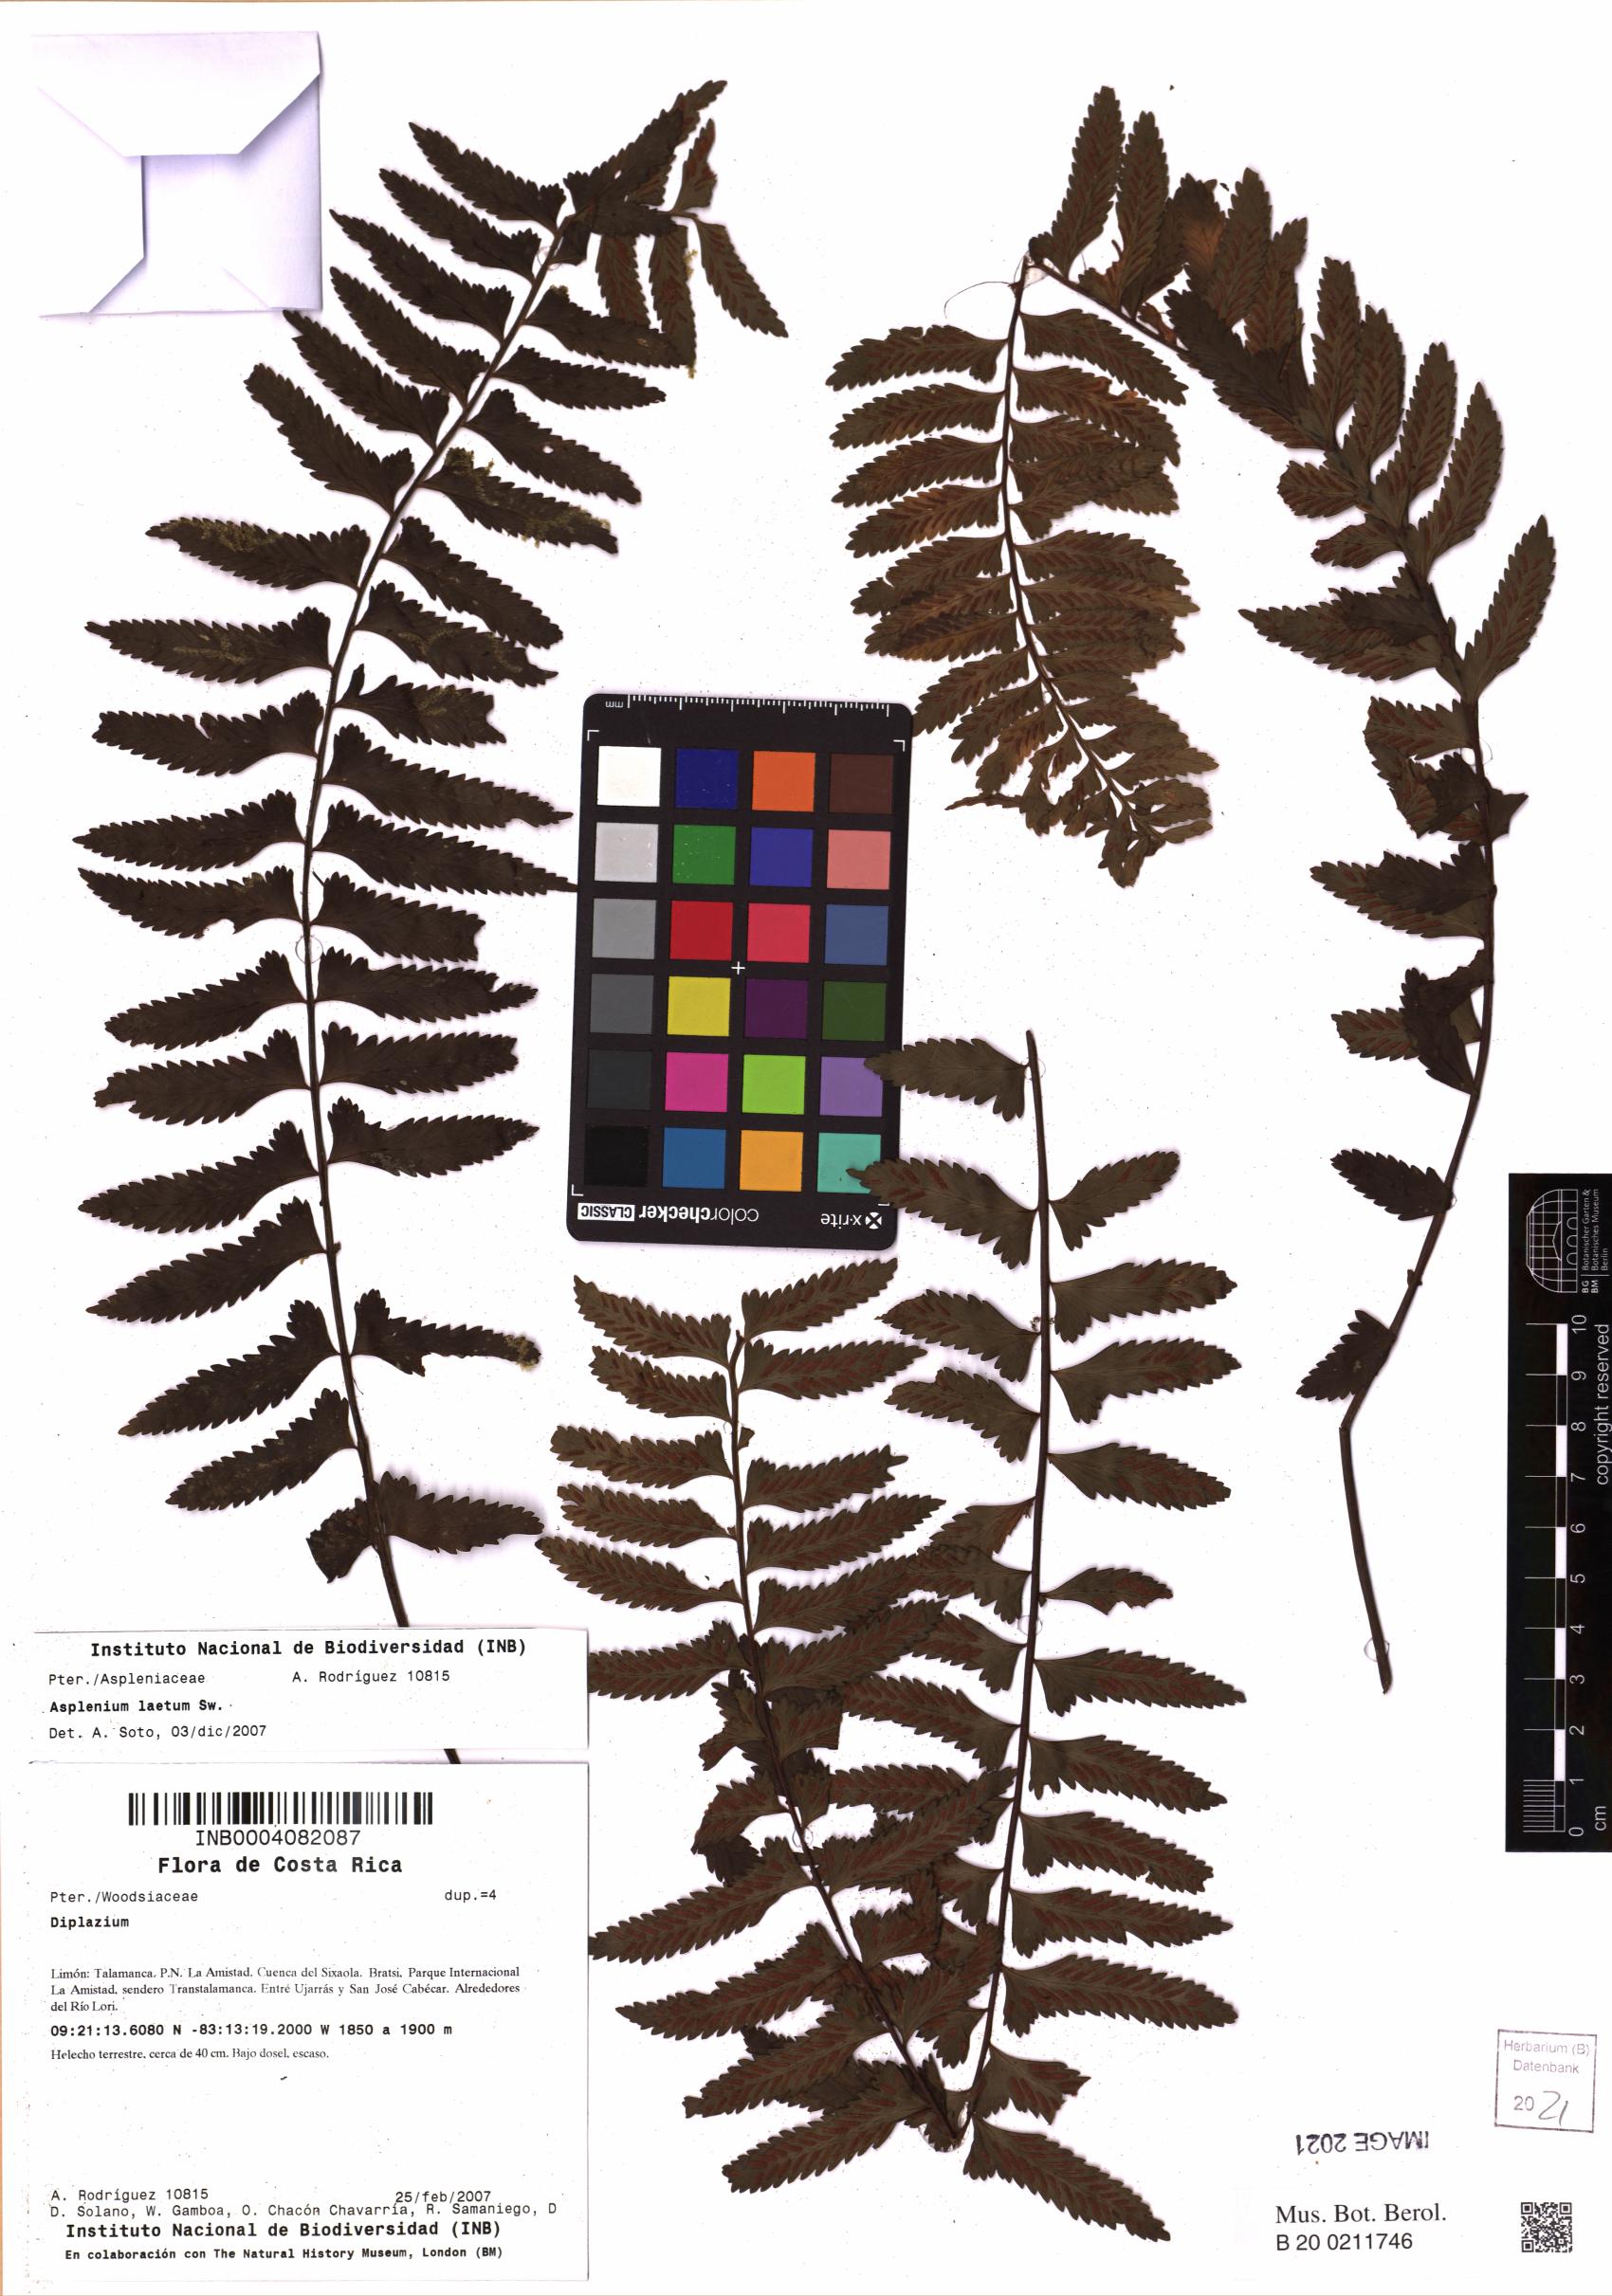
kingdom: Plantae
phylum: Tracheophyta
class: Polypodiopsida
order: Polypodiales
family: Aspleniaceae
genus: Hymenasplenium
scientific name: Hymenasplenium laetum
